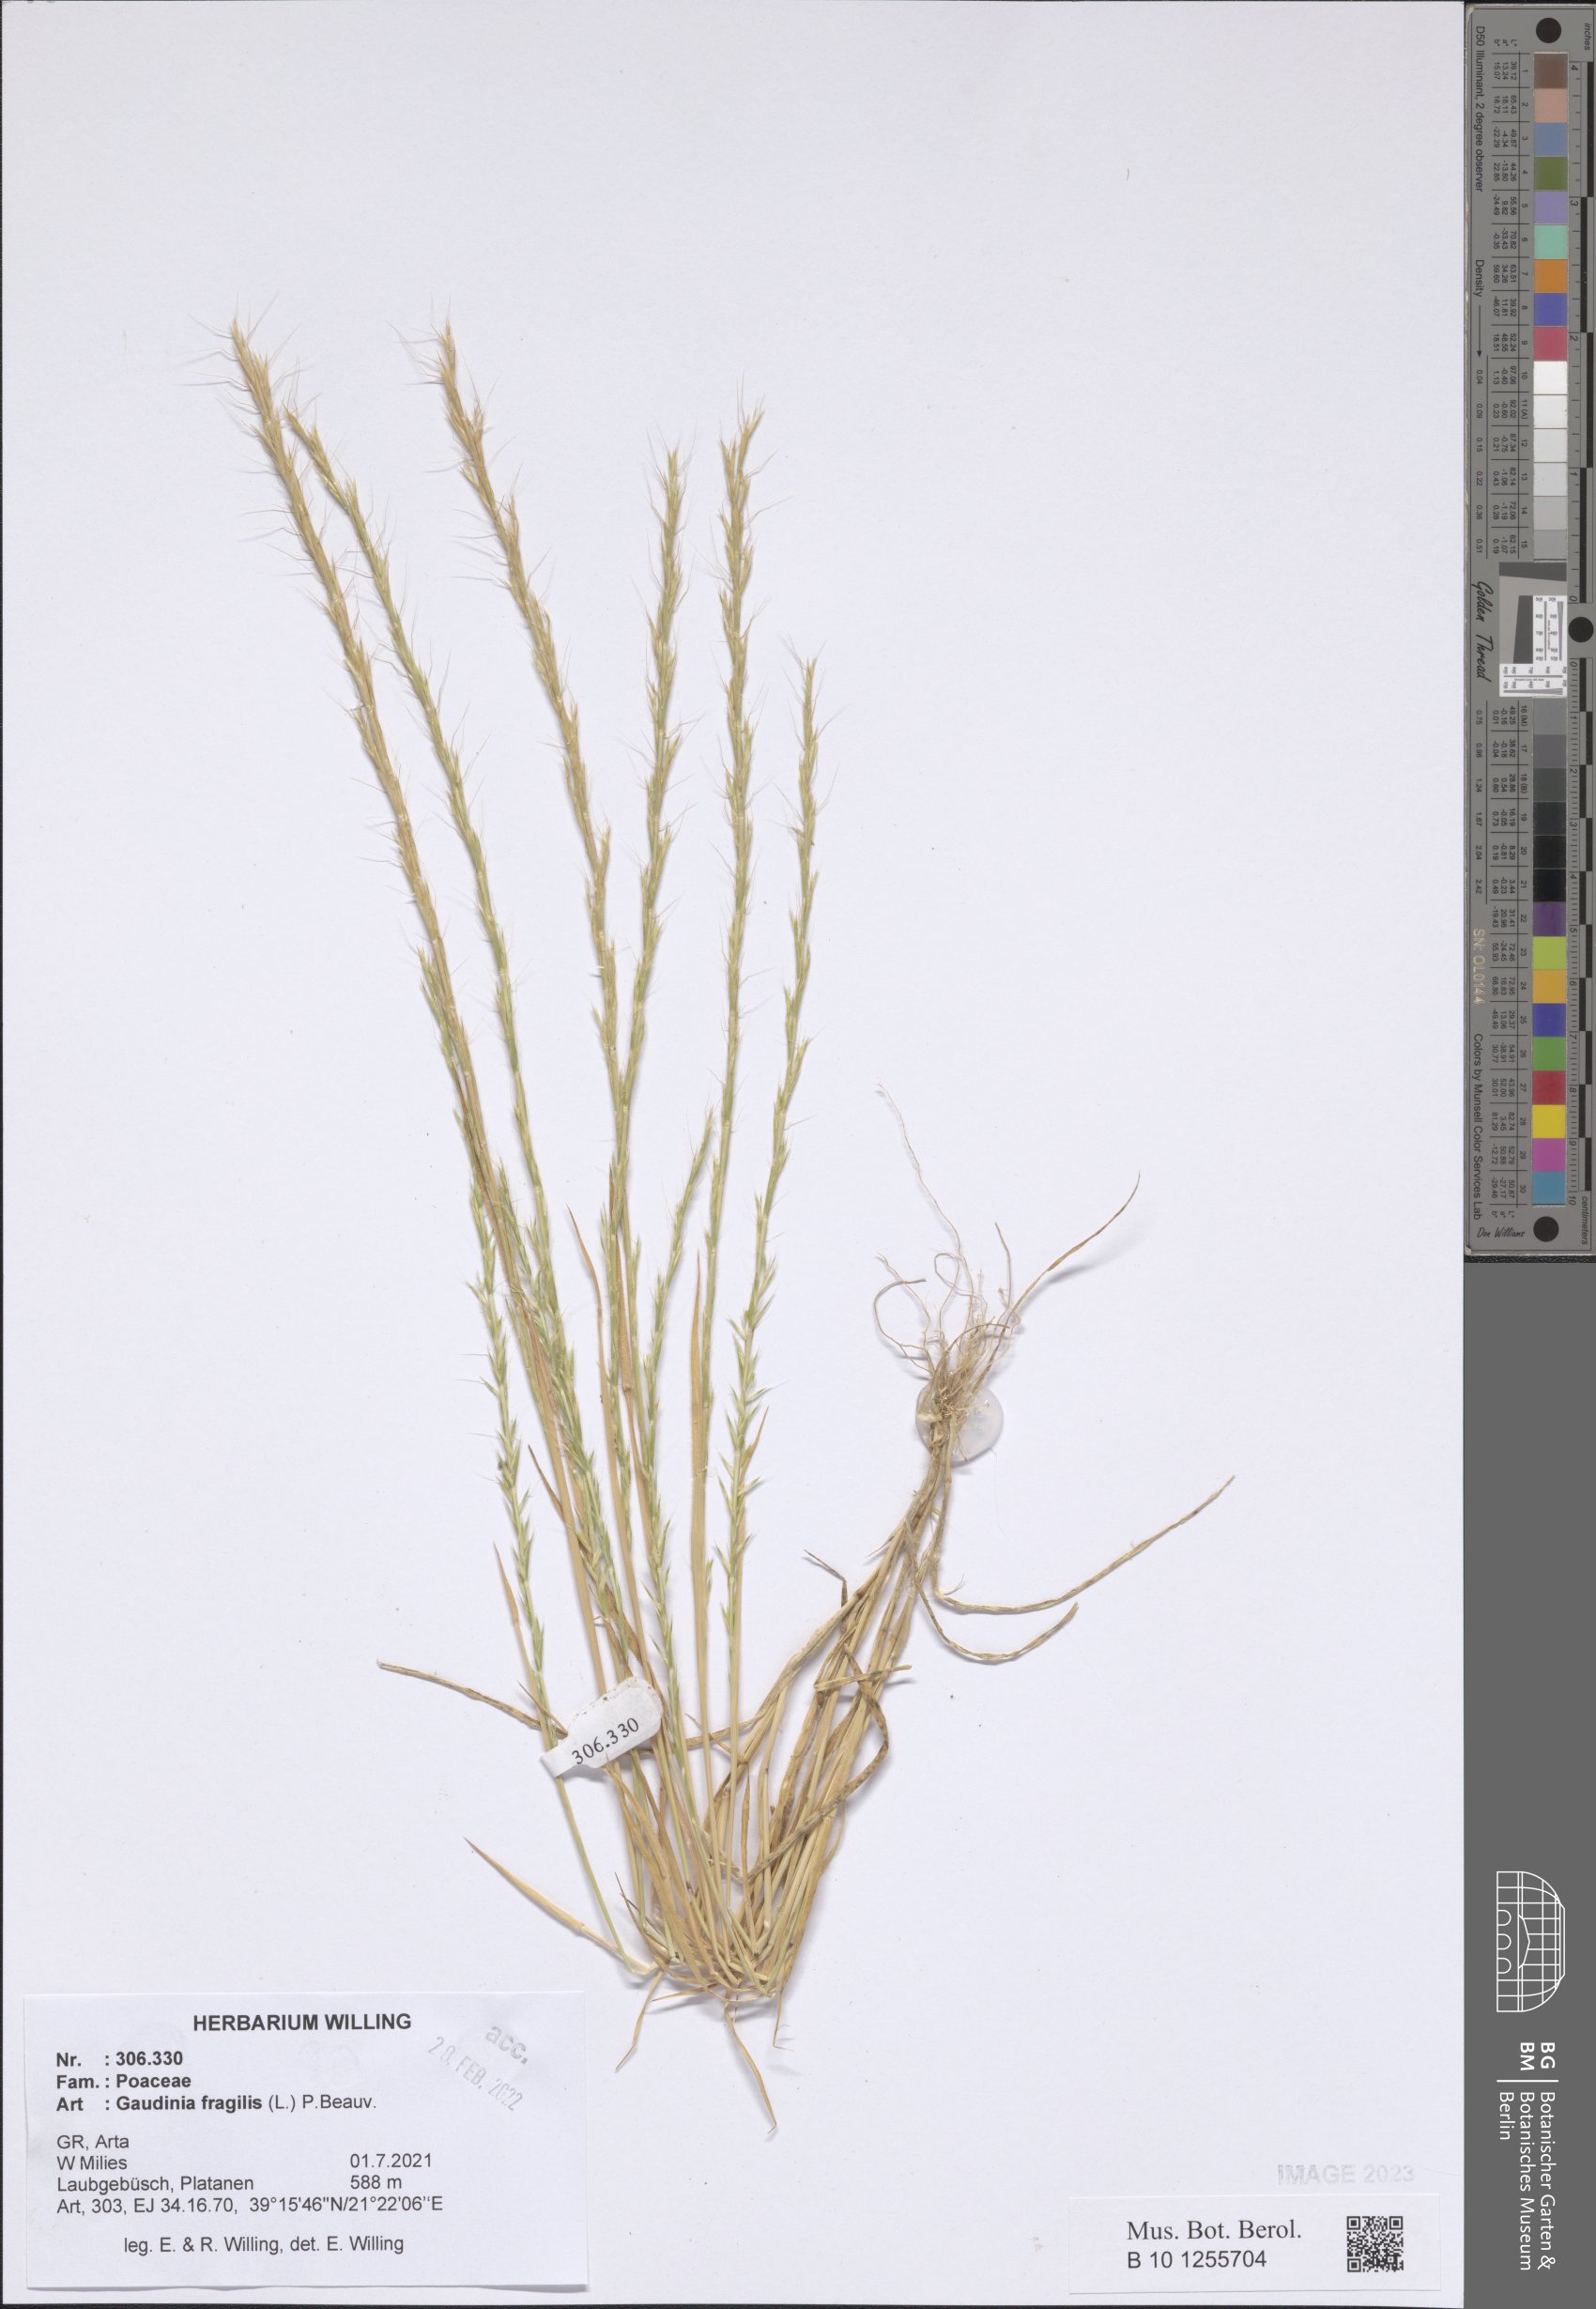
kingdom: Plantae
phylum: Tracheophyta
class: Liliopsida
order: Poales
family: Poaceae
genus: Gaudinia
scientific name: Gaudinia fragilis
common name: French oat-grass
